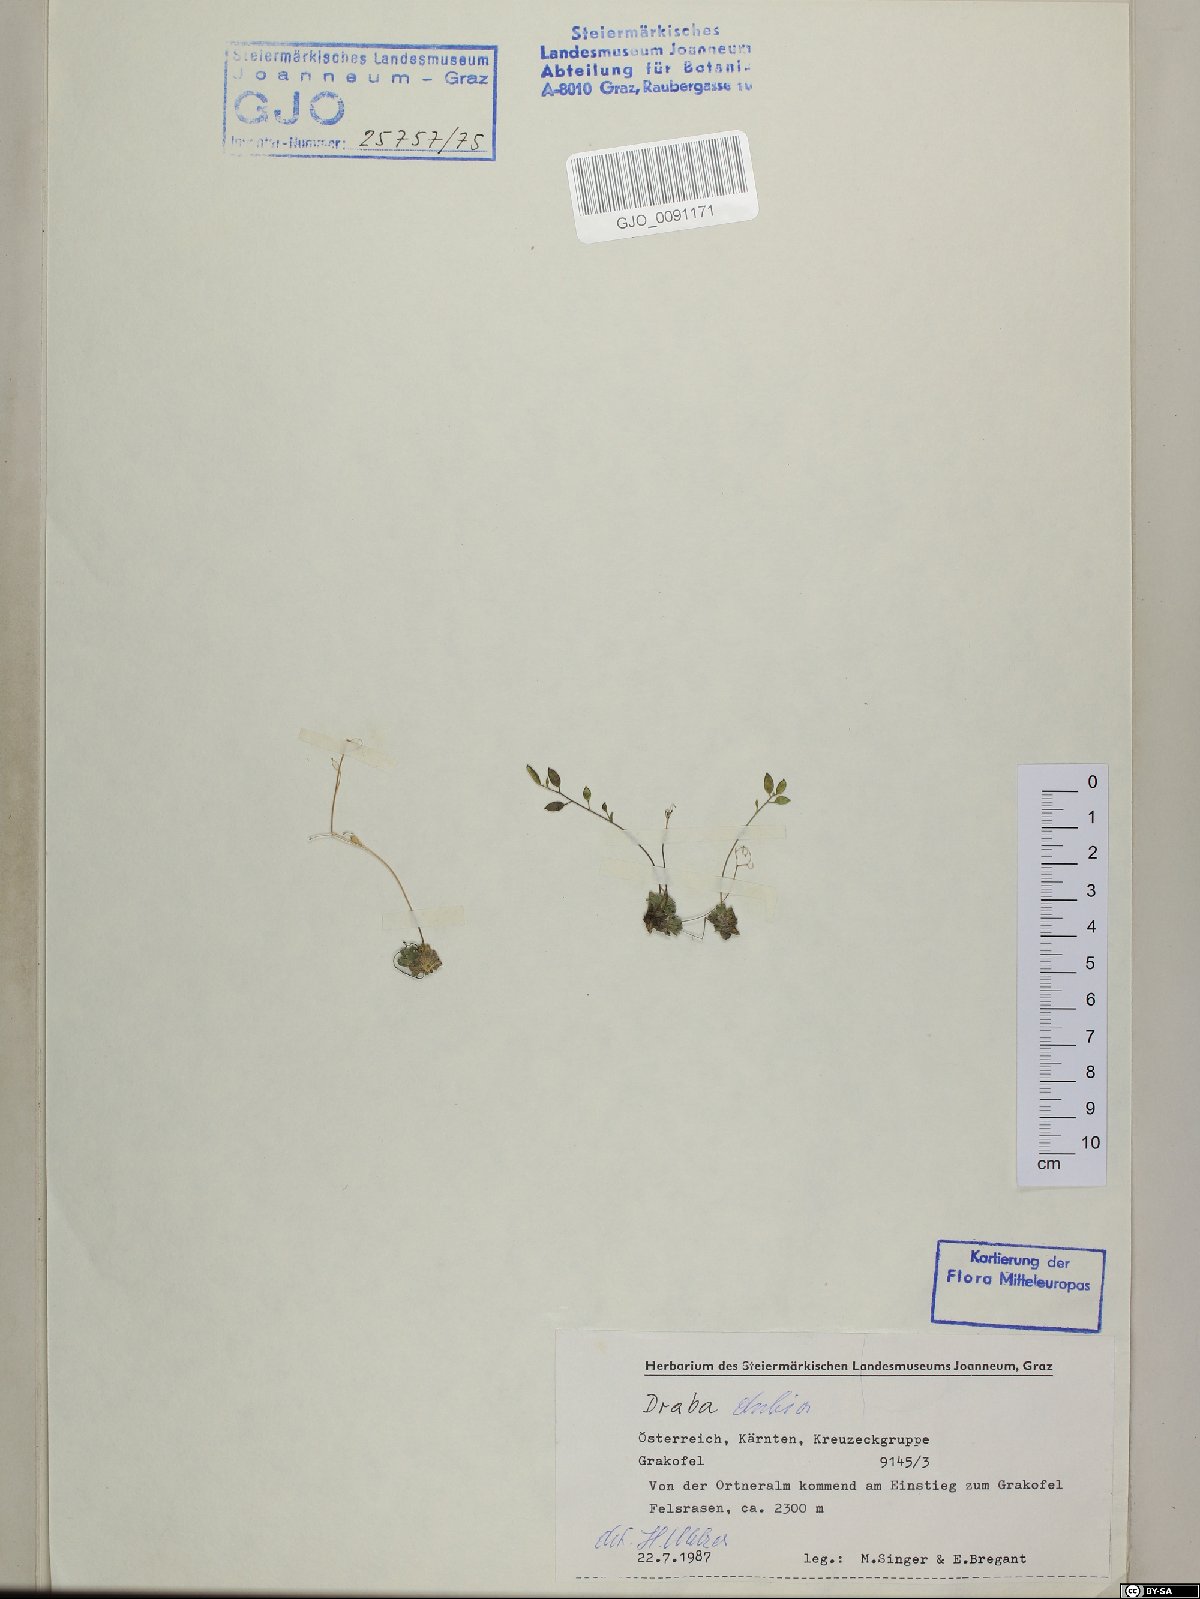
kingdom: Plantae
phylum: Tracheophyta
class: Magnoliopsida
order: Brassicales
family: Brassicaceae
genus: Draba
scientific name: Draba dubia
